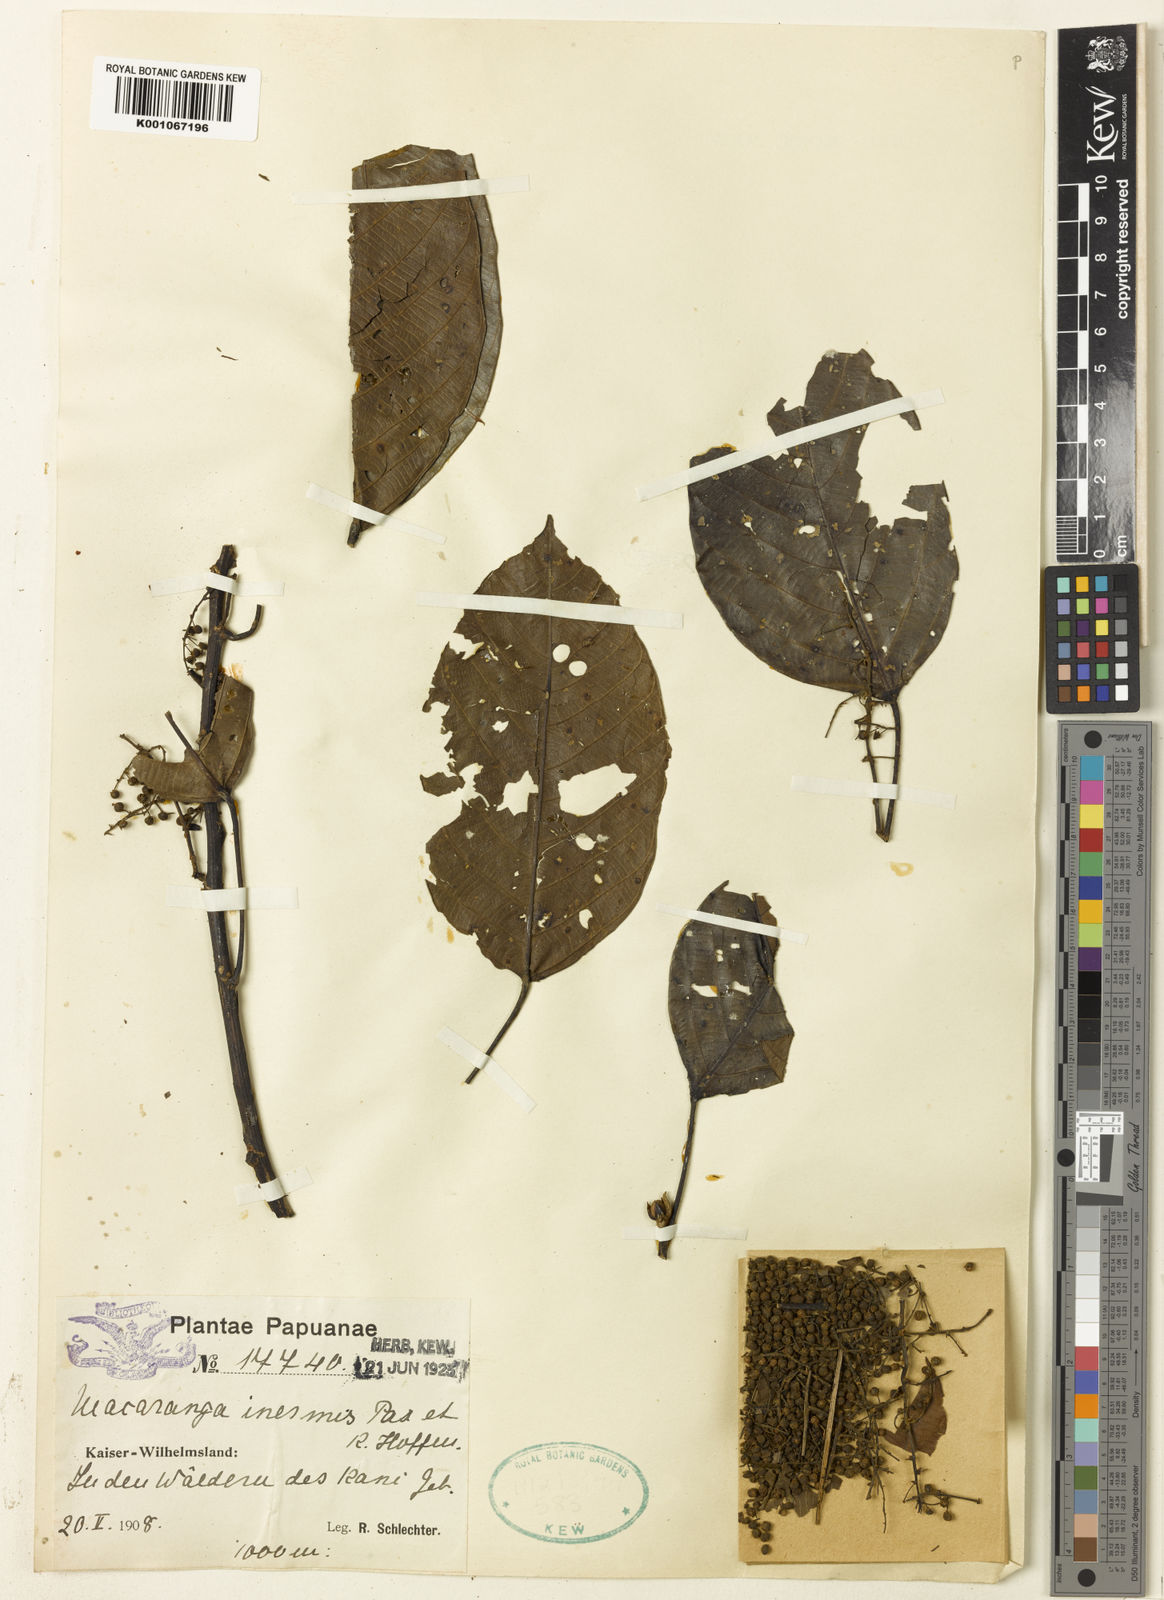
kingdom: Plantae
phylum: Tracheophyta
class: Magnoliopsida
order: Malpighiales
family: Euphorbiaceae
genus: Macaranga
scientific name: Macaranga inermis
